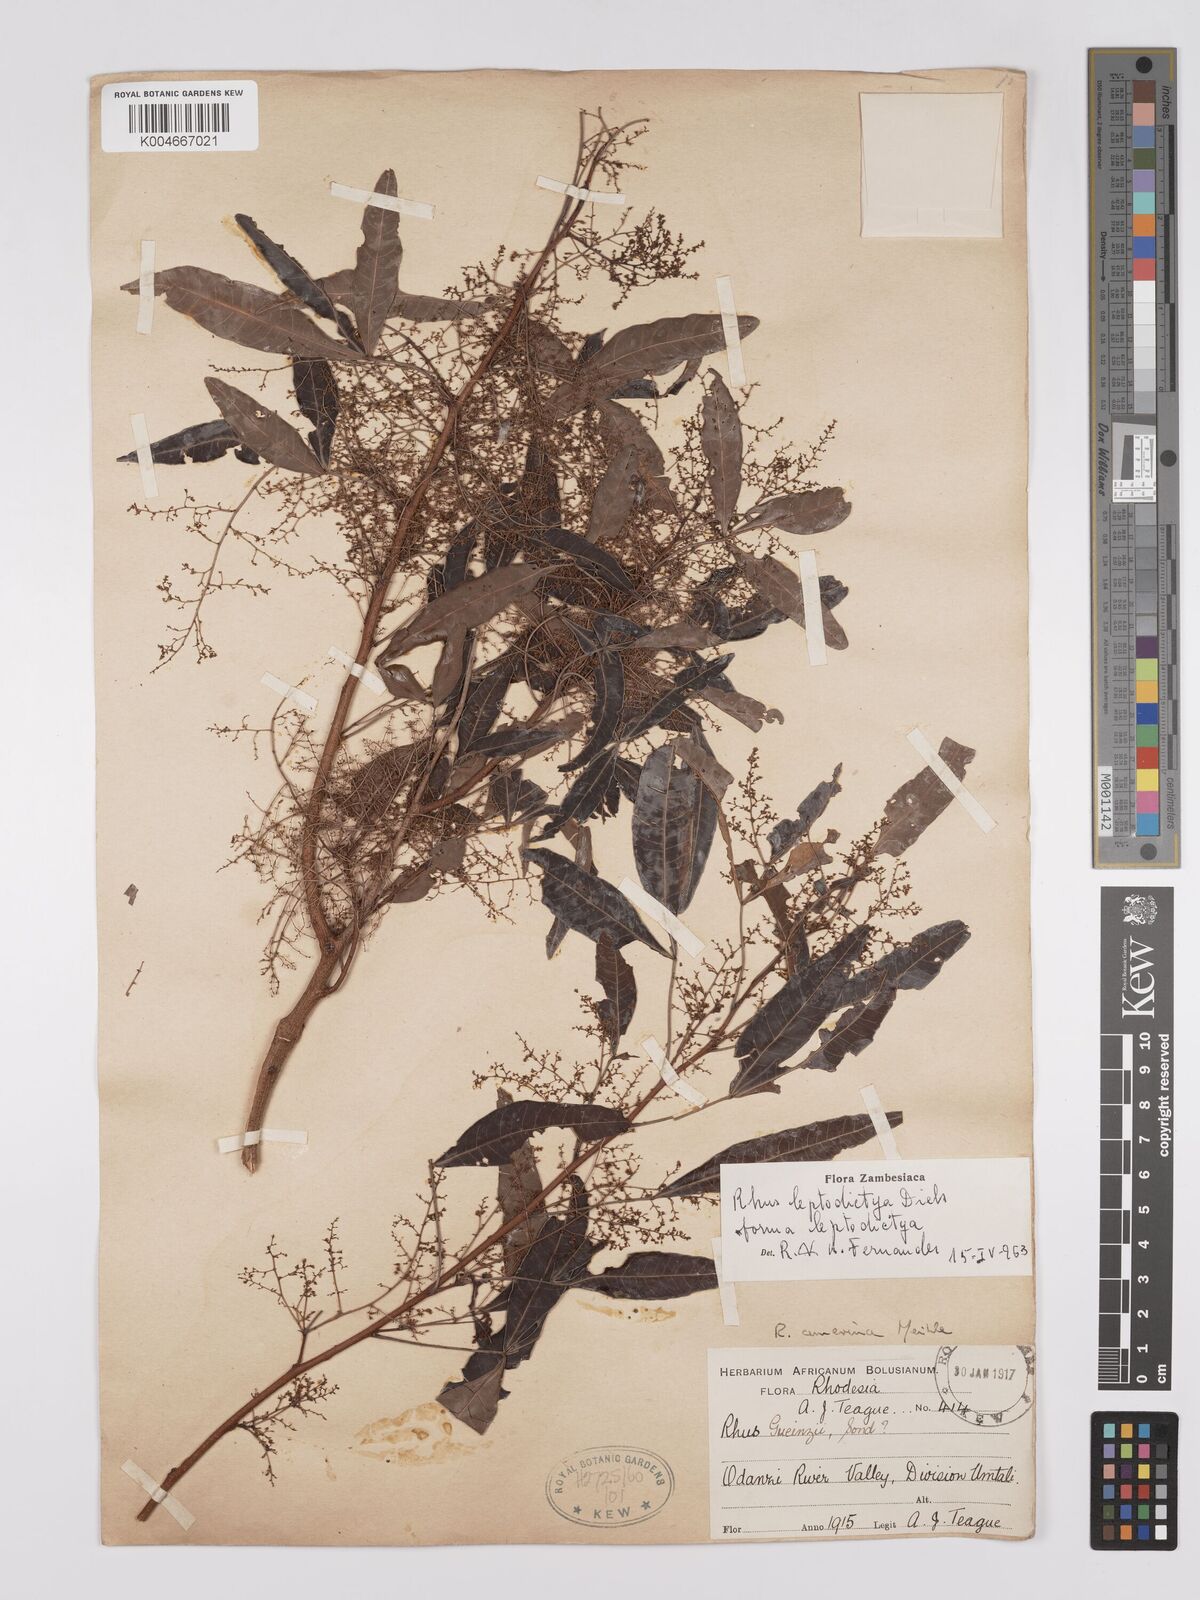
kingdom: Plantae
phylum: Tracheophyta
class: Magnoliopsida
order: Sapindales
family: Anacardiaceae
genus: Searsia
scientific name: Searsia leptodictya
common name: Mountain karee
